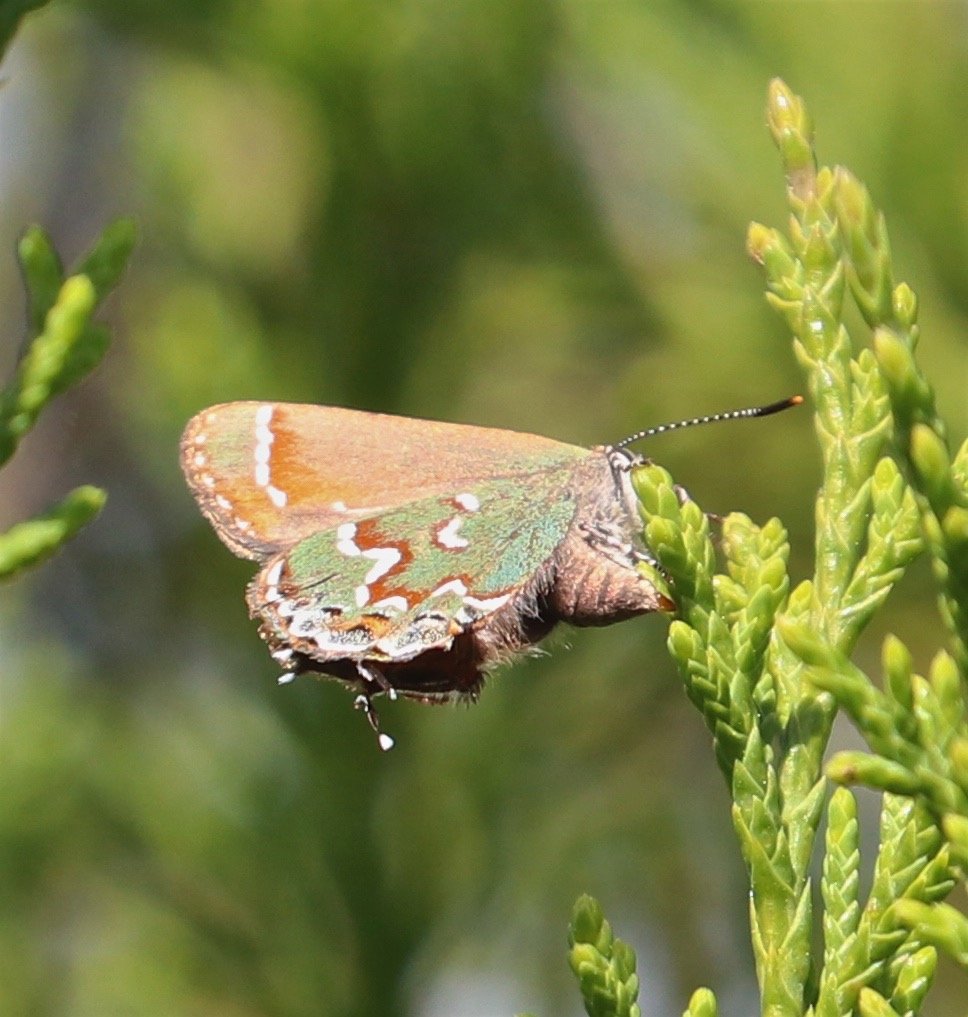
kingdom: Animalia
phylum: Arthropoda
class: Insecta
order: Lepidoptera
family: Lycaenidae
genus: Mitoura
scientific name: Mitoura gryneus
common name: Juniper Hairstreak
